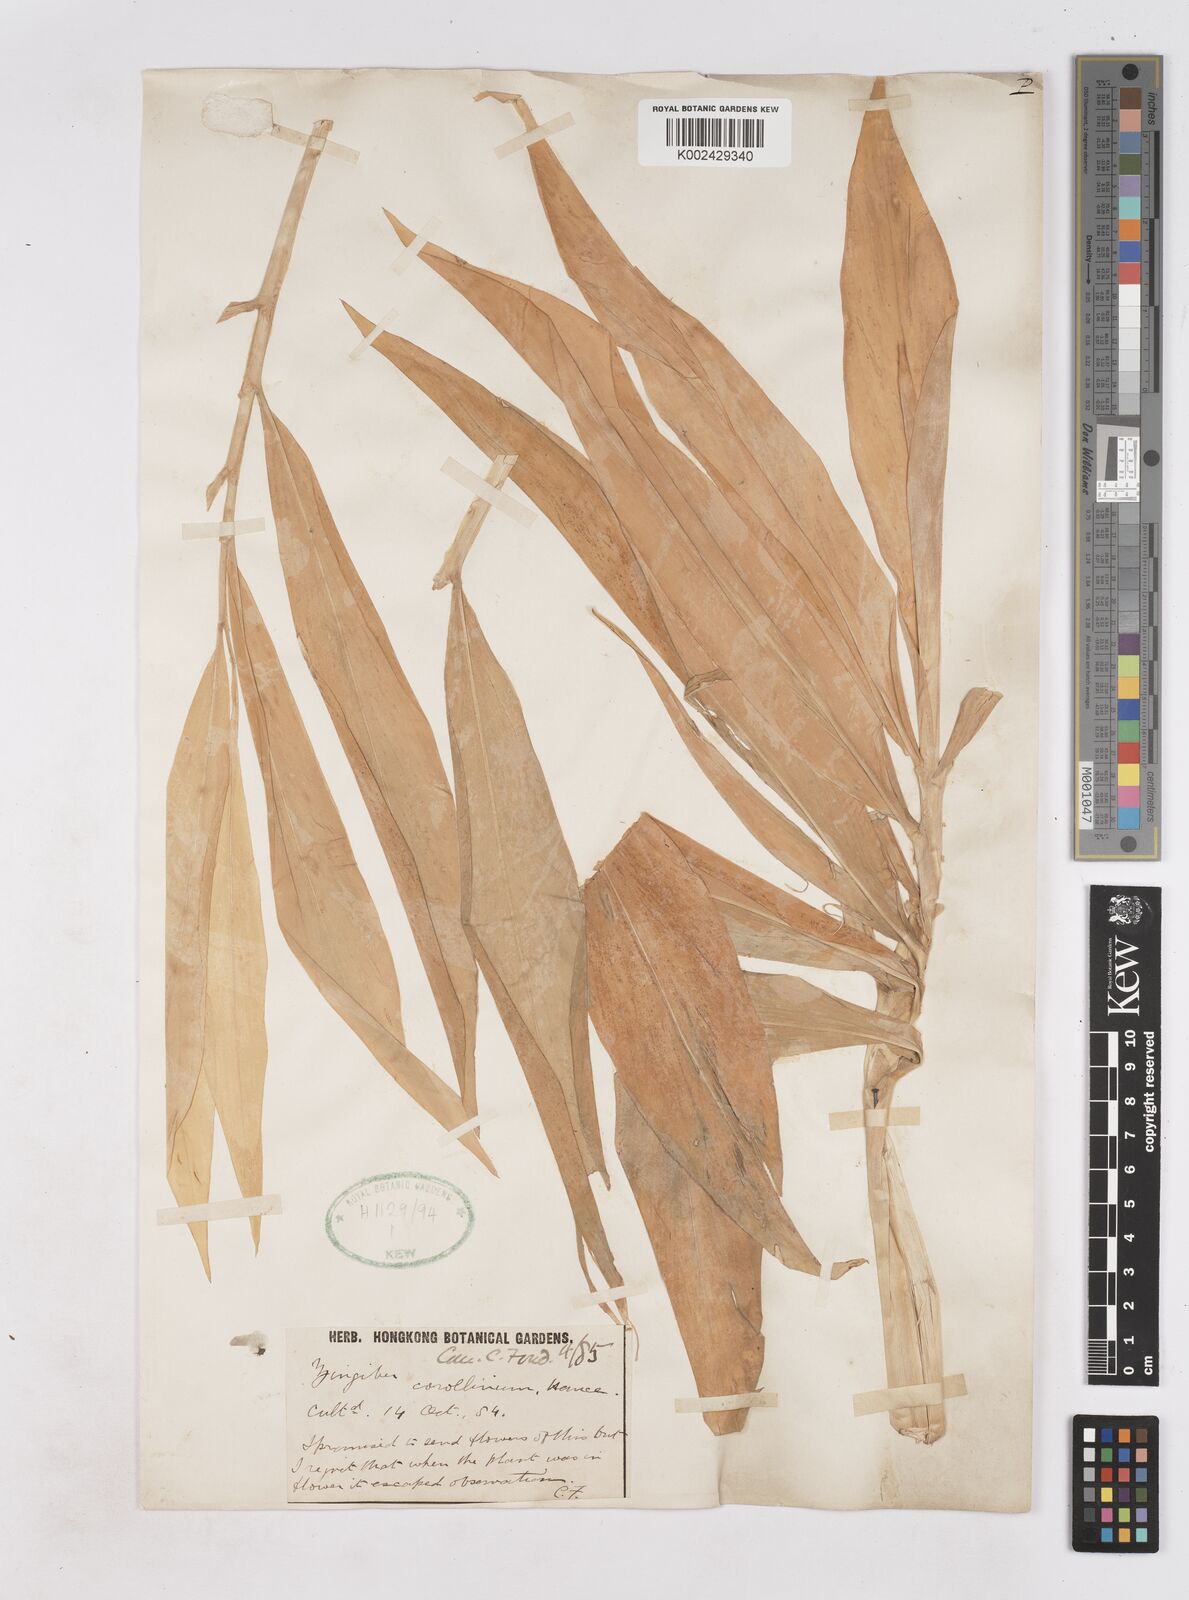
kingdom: Plantae
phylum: Tracheophyta
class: Liliopsida
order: Zingiberales
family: Zingiberaceae
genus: Zingiber
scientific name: Zingiber corallinum
